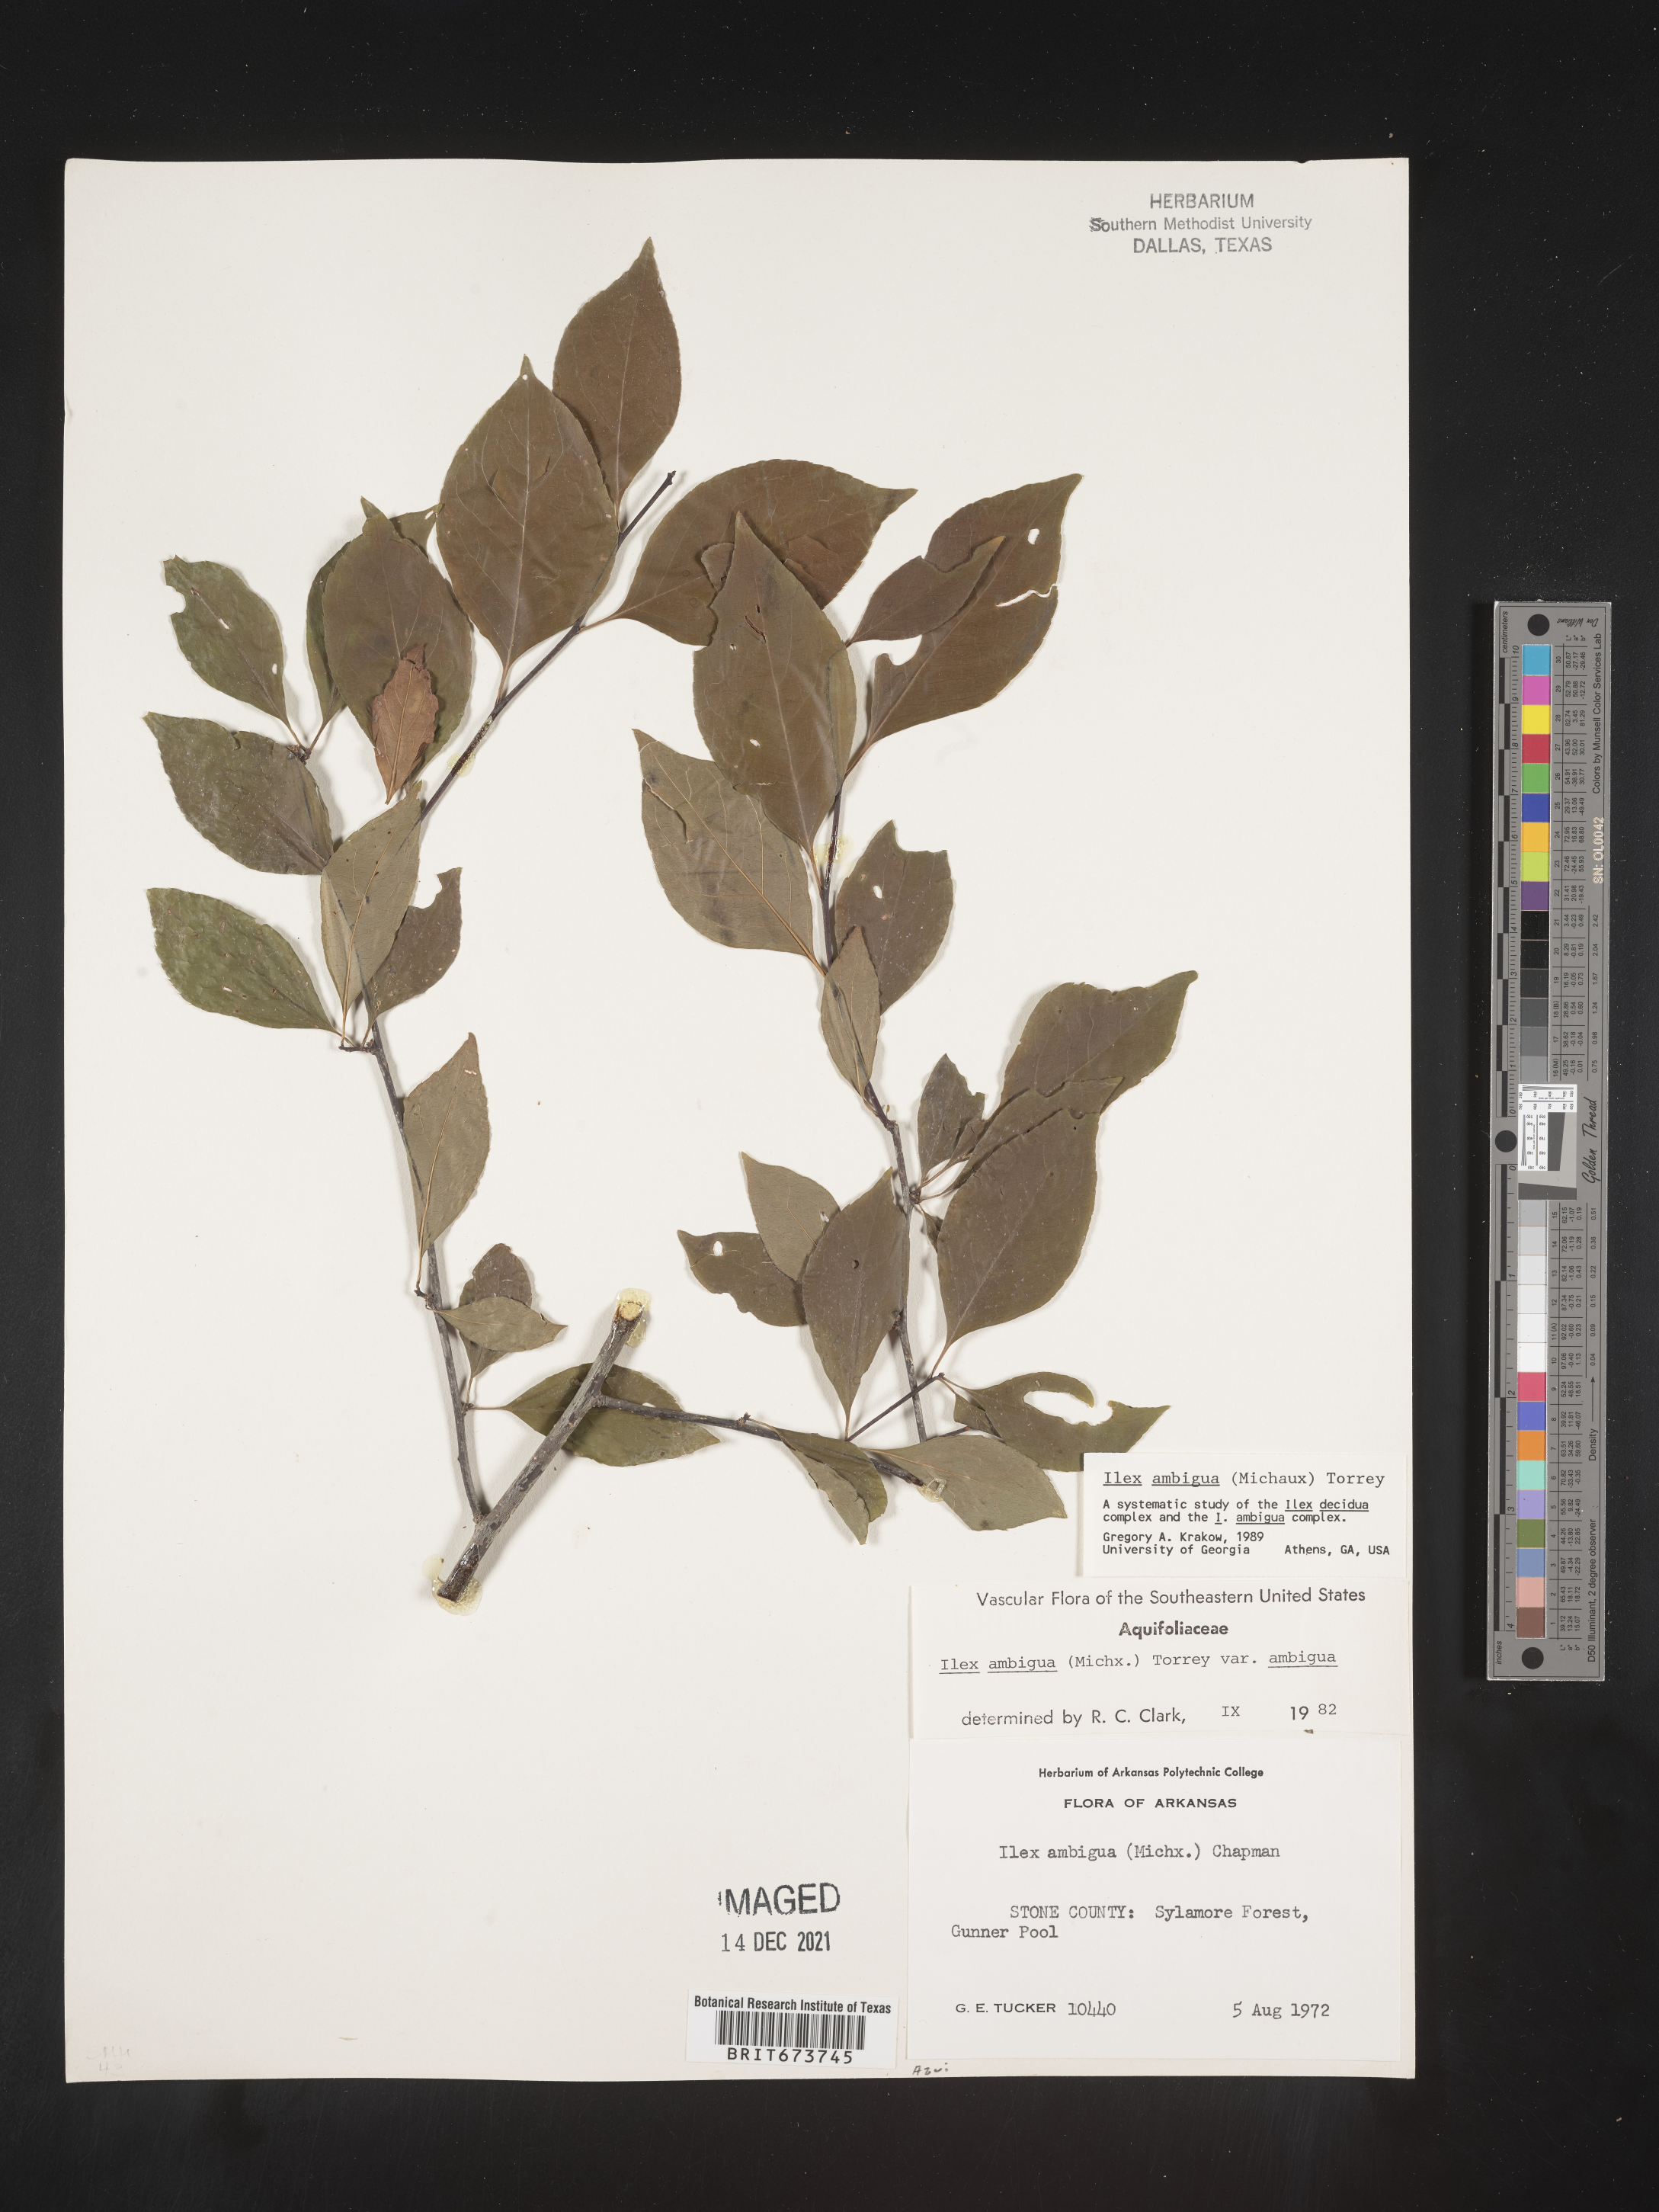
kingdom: Plantae
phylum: Tracheophyta
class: Magnoliopsida
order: Aquifoliales
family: Aquifoliaceae
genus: Ilex
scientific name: Ilex ambigua
